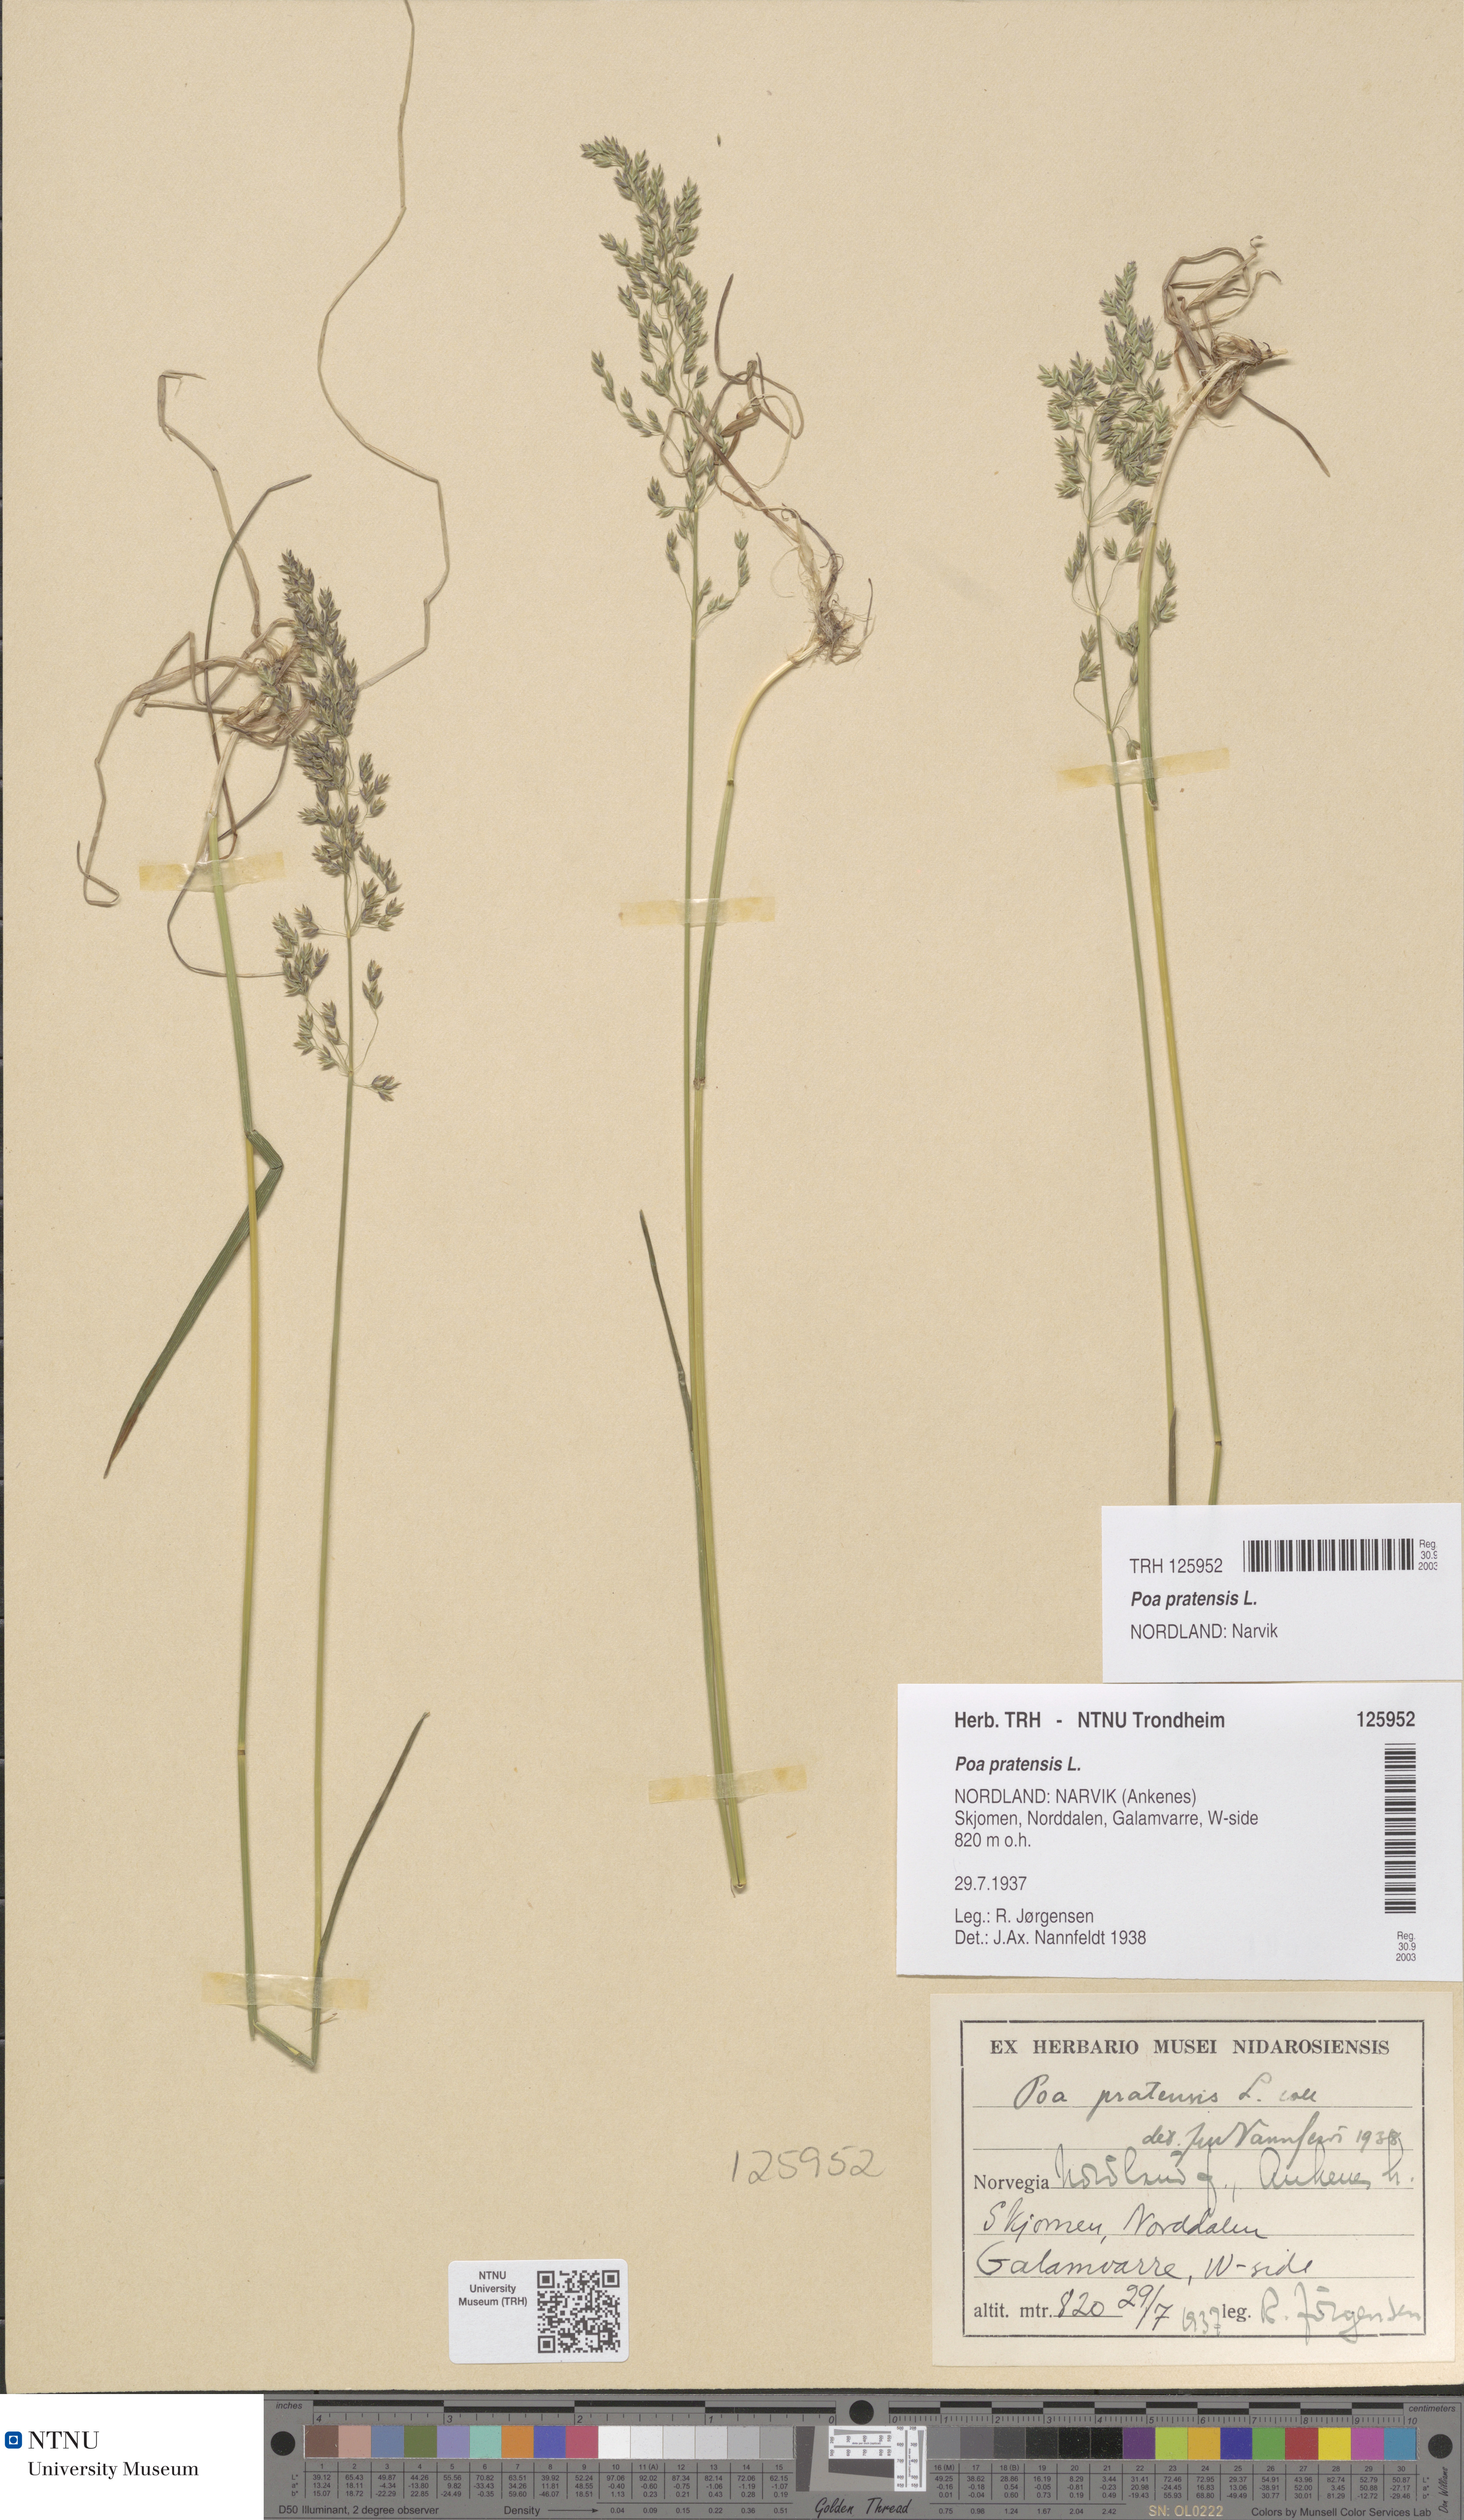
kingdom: Plantae
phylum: Tracheophyta
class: Liliopsida
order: Poales
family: Poaceae
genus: Poa
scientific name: Poa pratensis
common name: Kentucky bluegrass
